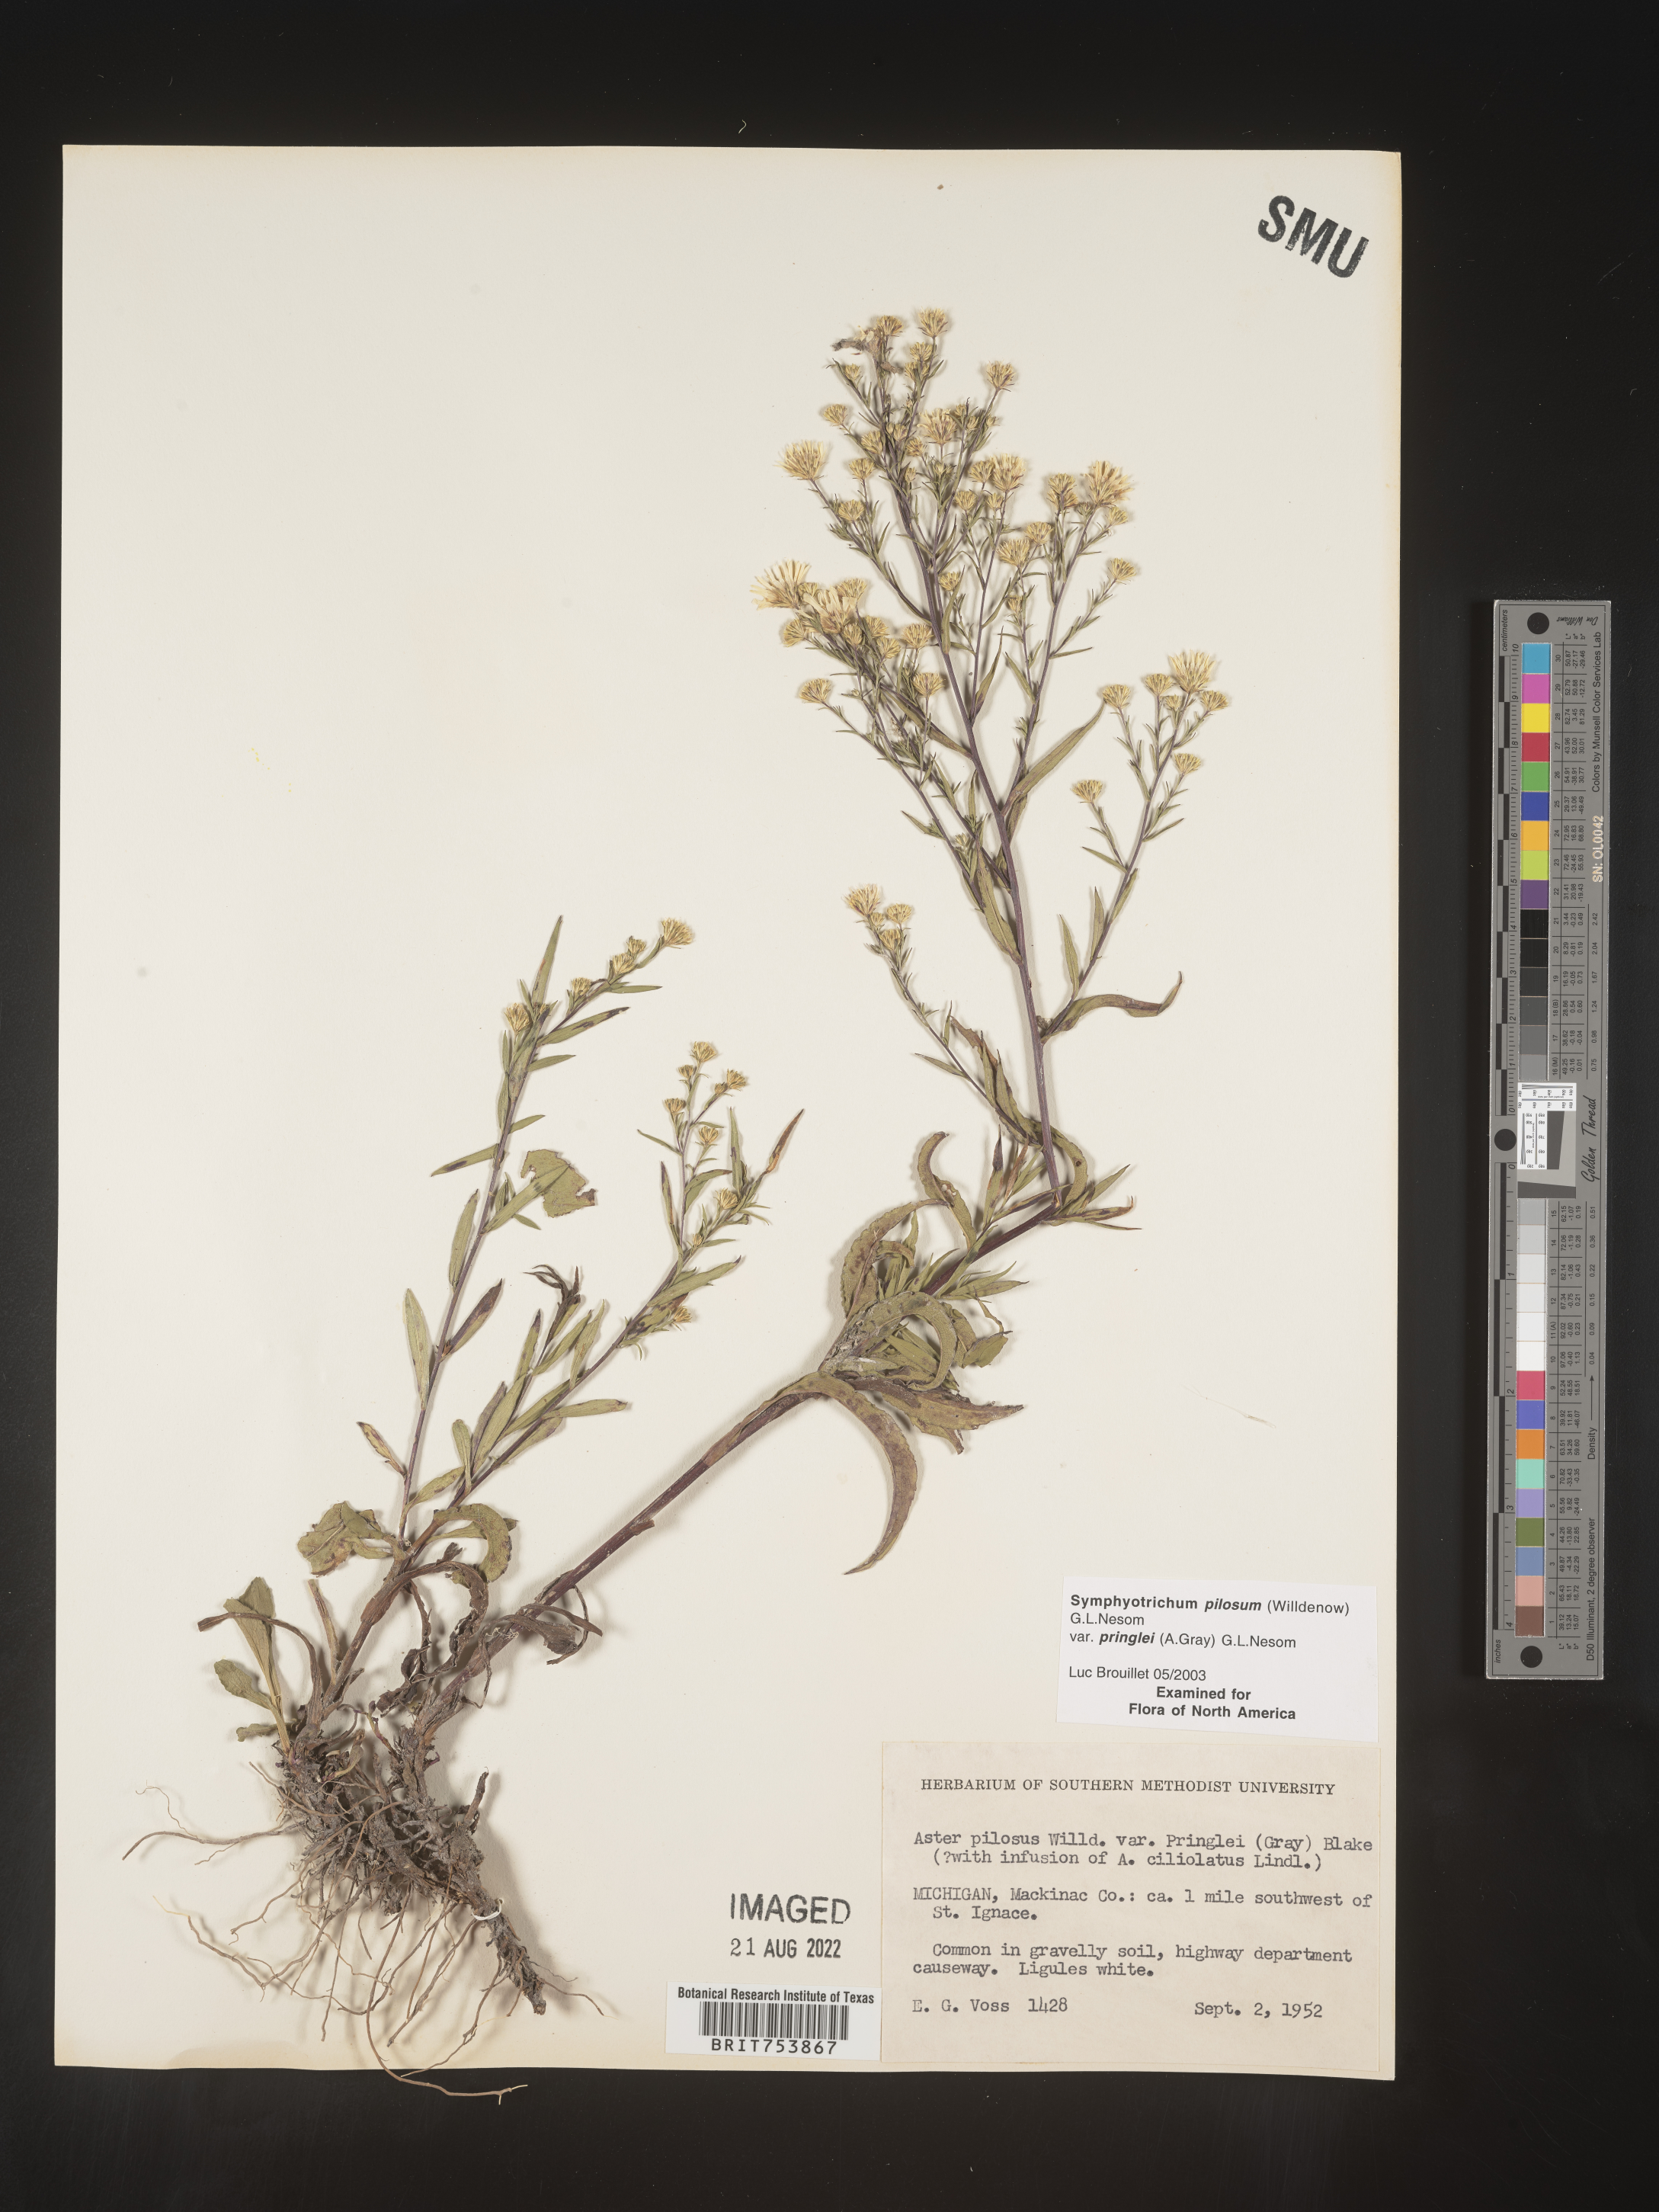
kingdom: Plantae
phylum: Tracheophyta
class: Magnoliopsida
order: Asterales
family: Asteraceae
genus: Symphyotrichum
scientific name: Symphyotrichum pilosum
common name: Awl aster
